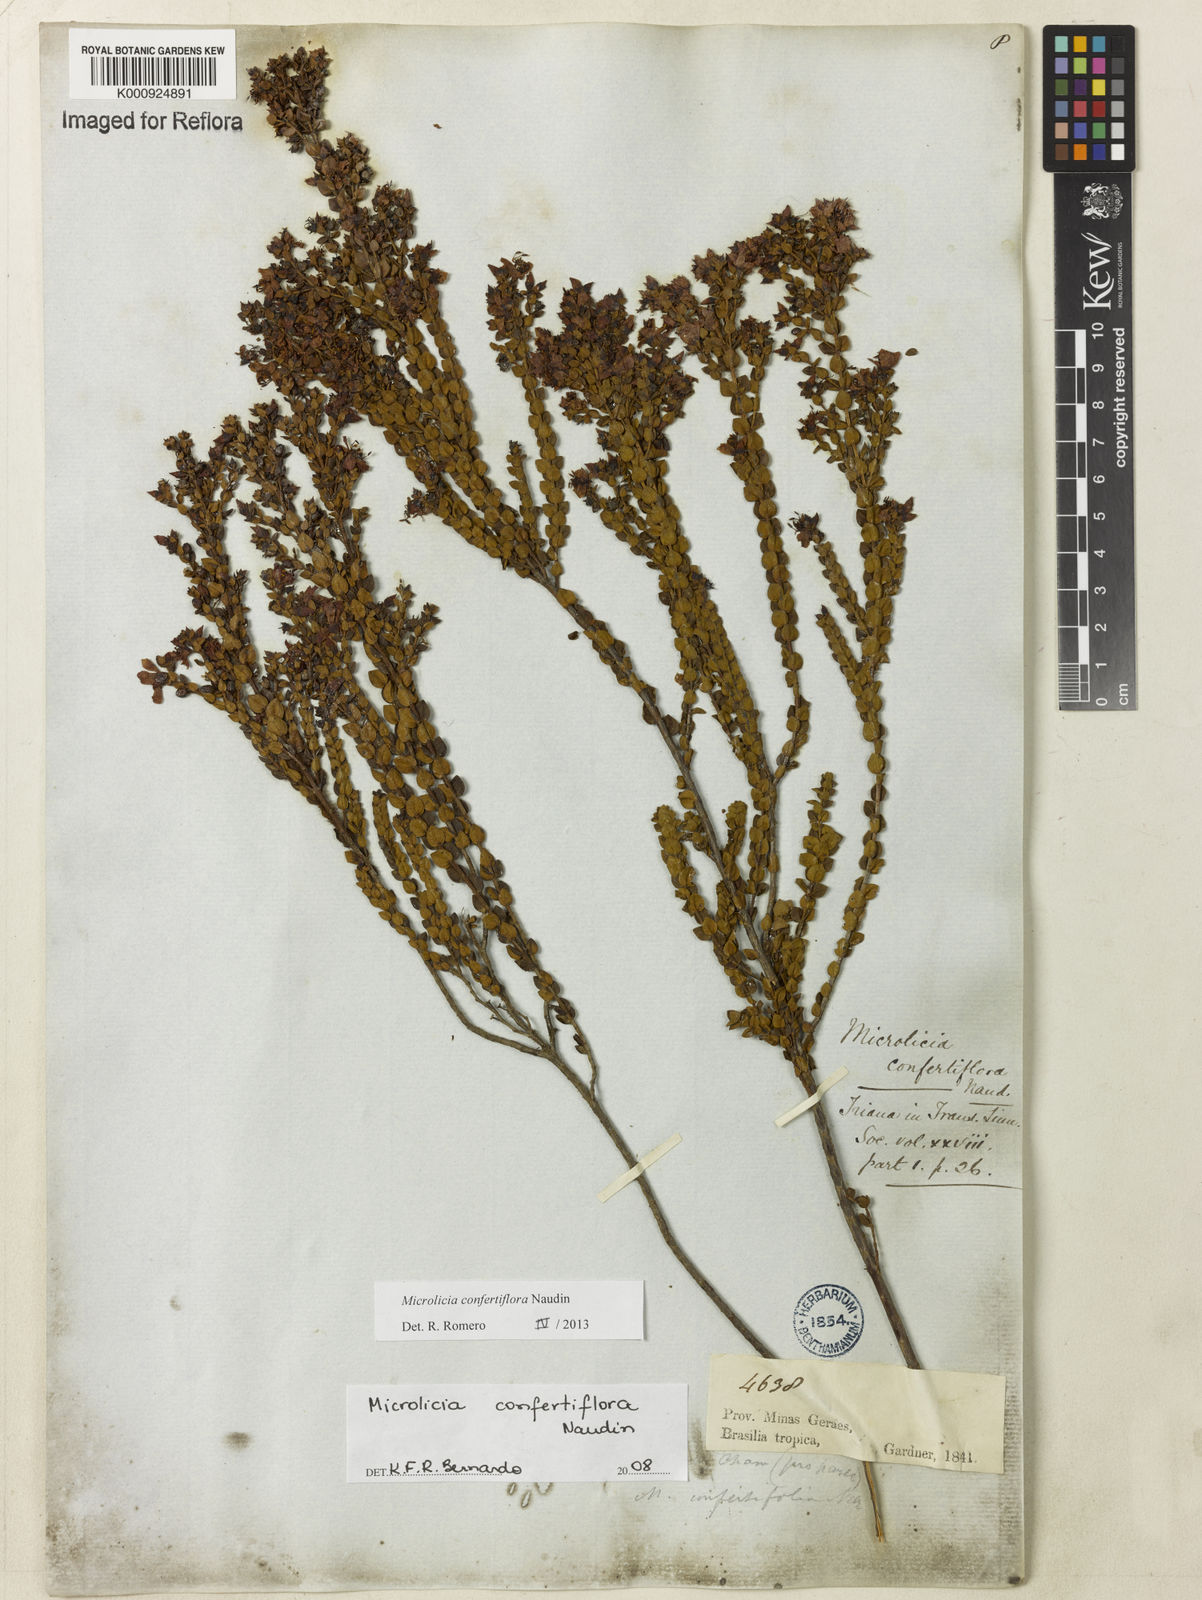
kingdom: Plantae
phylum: Tracheophyta
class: Magnoliopsida
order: Myrtales
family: Melastomataceae
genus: Microlicia
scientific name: Microlicia confertiflora
